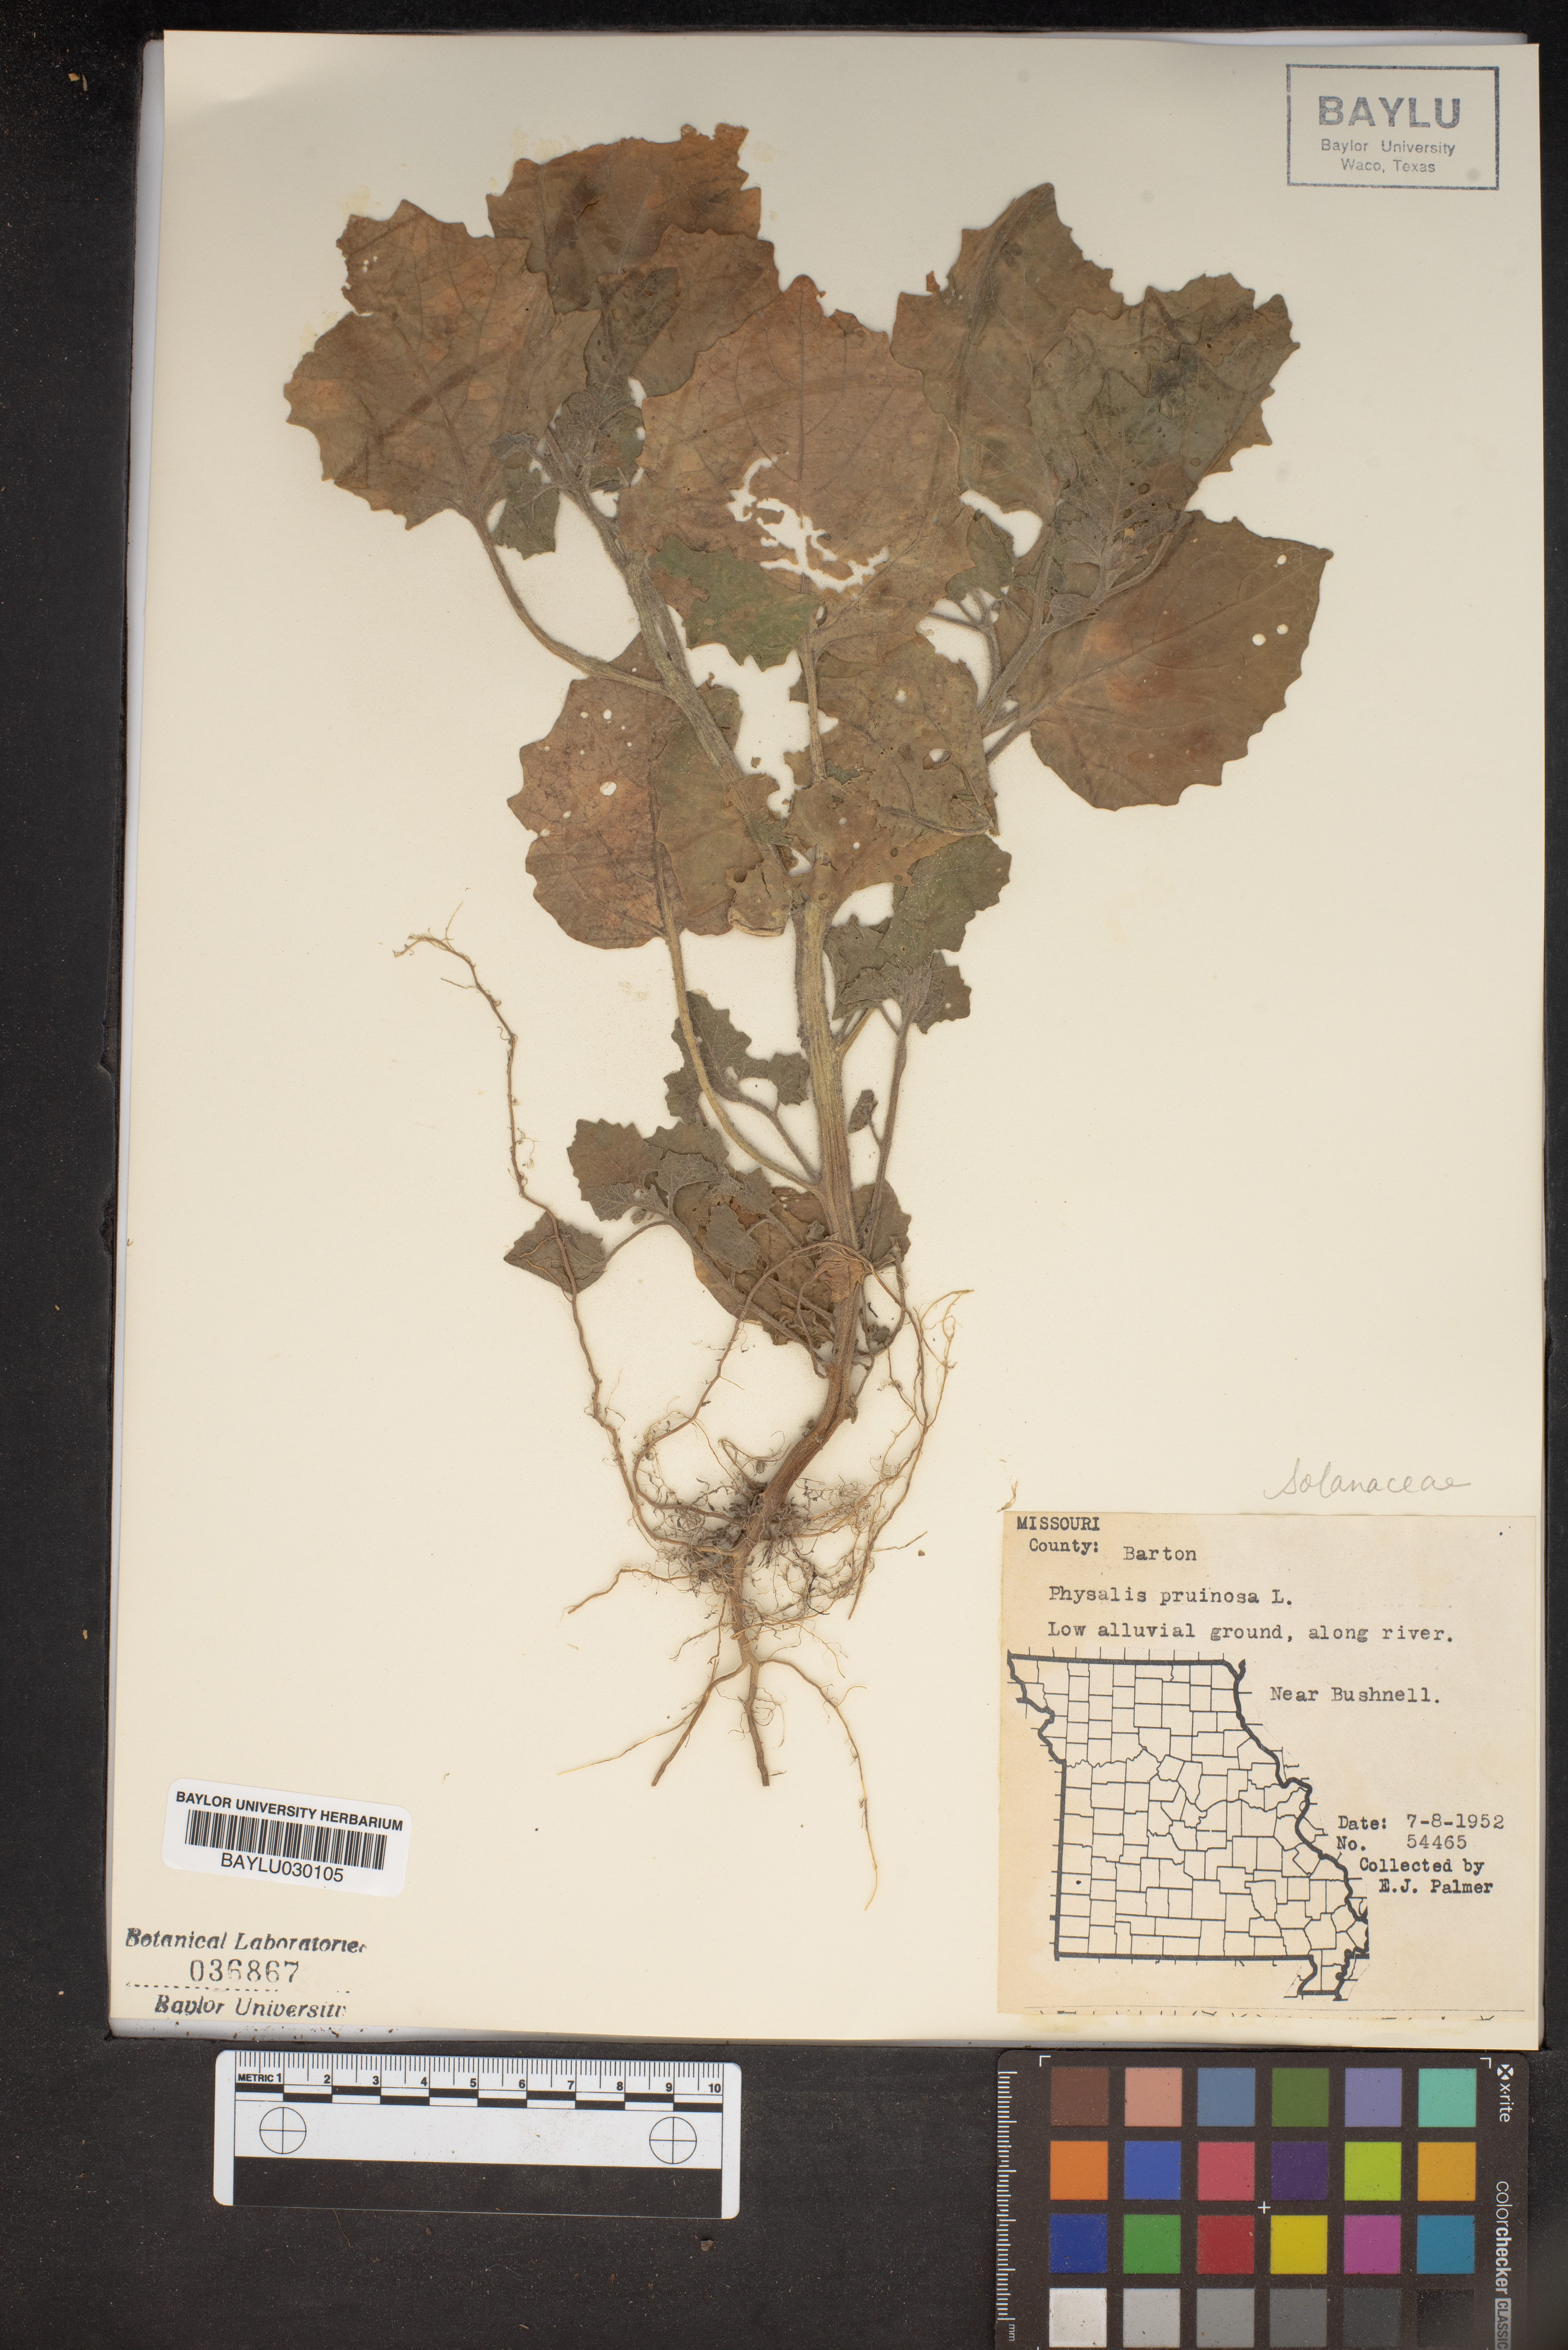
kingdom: Plantae
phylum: Tracheophyta
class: Magnoliopsida
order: Solanales
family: Solanaceae
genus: Physalis
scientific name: Physalis pruinosa
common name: Strawberry tomato
